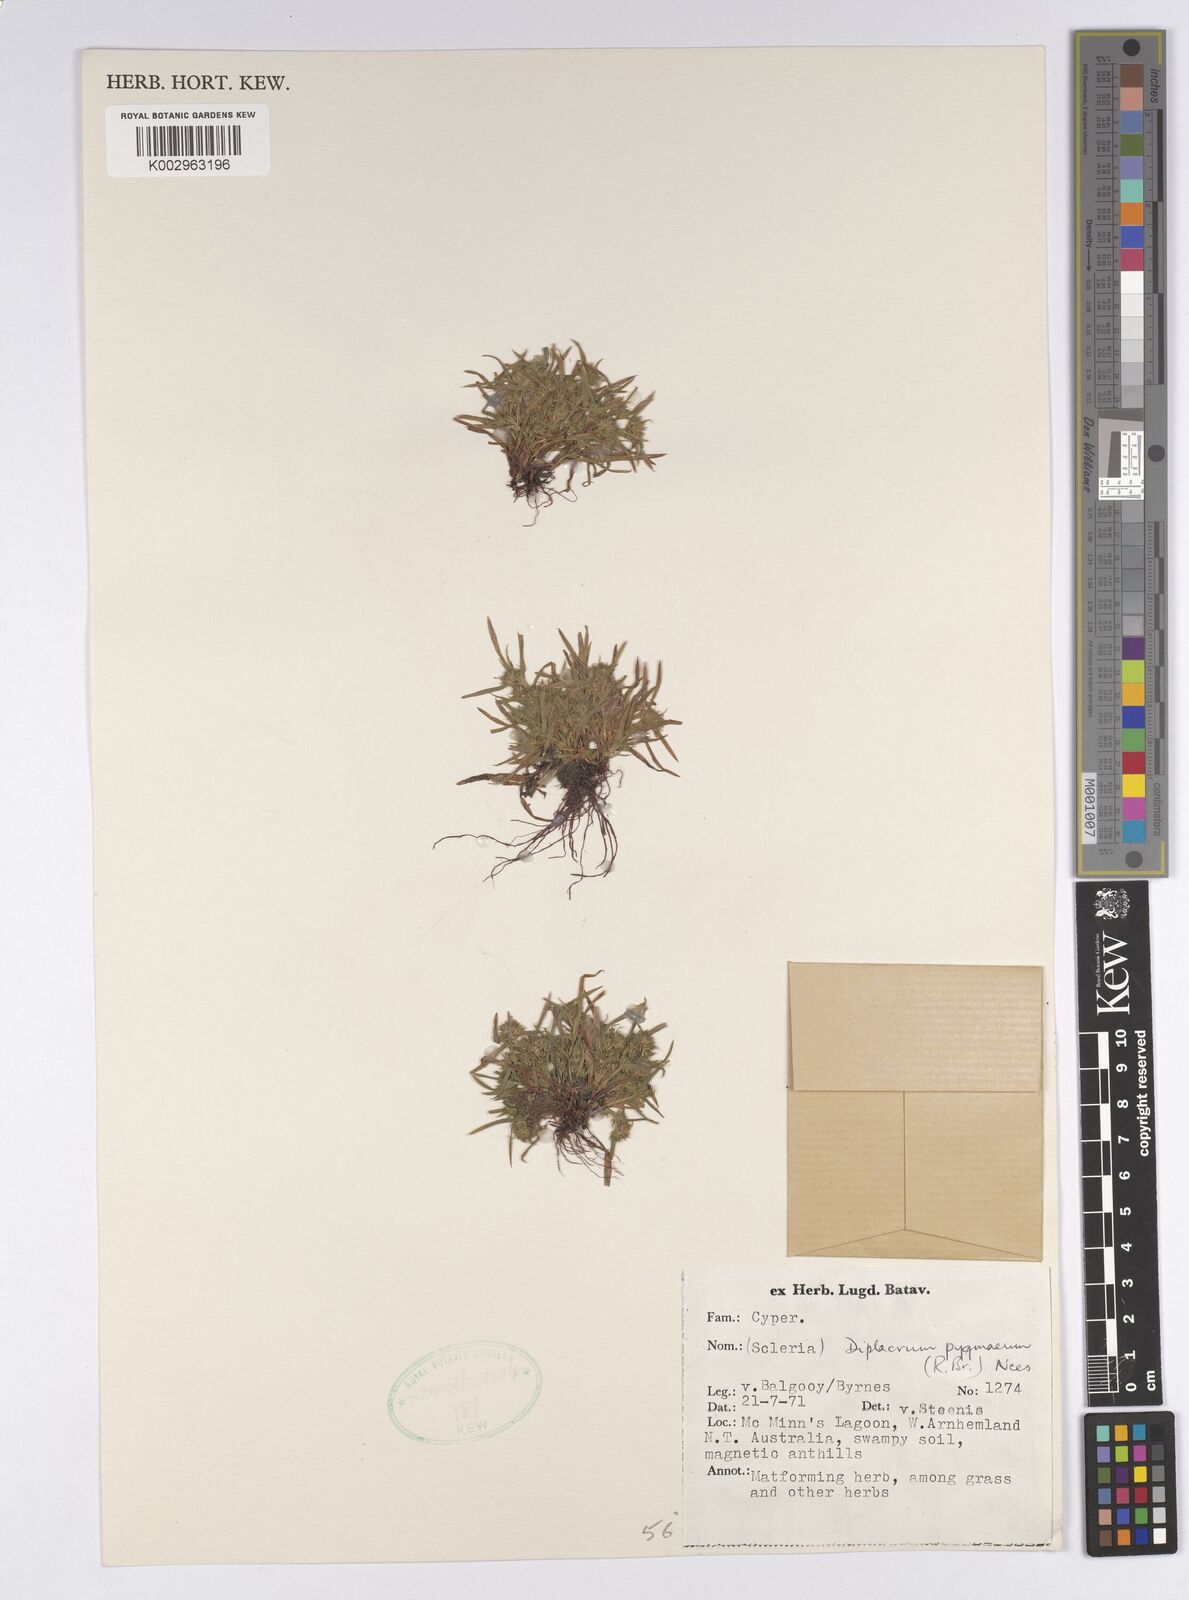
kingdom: Plantae
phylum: Tracheophyta
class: Liliopsida
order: Poales
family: Cyperaceae
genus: Diplacrum
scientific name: Diplacrum pygmaeum
